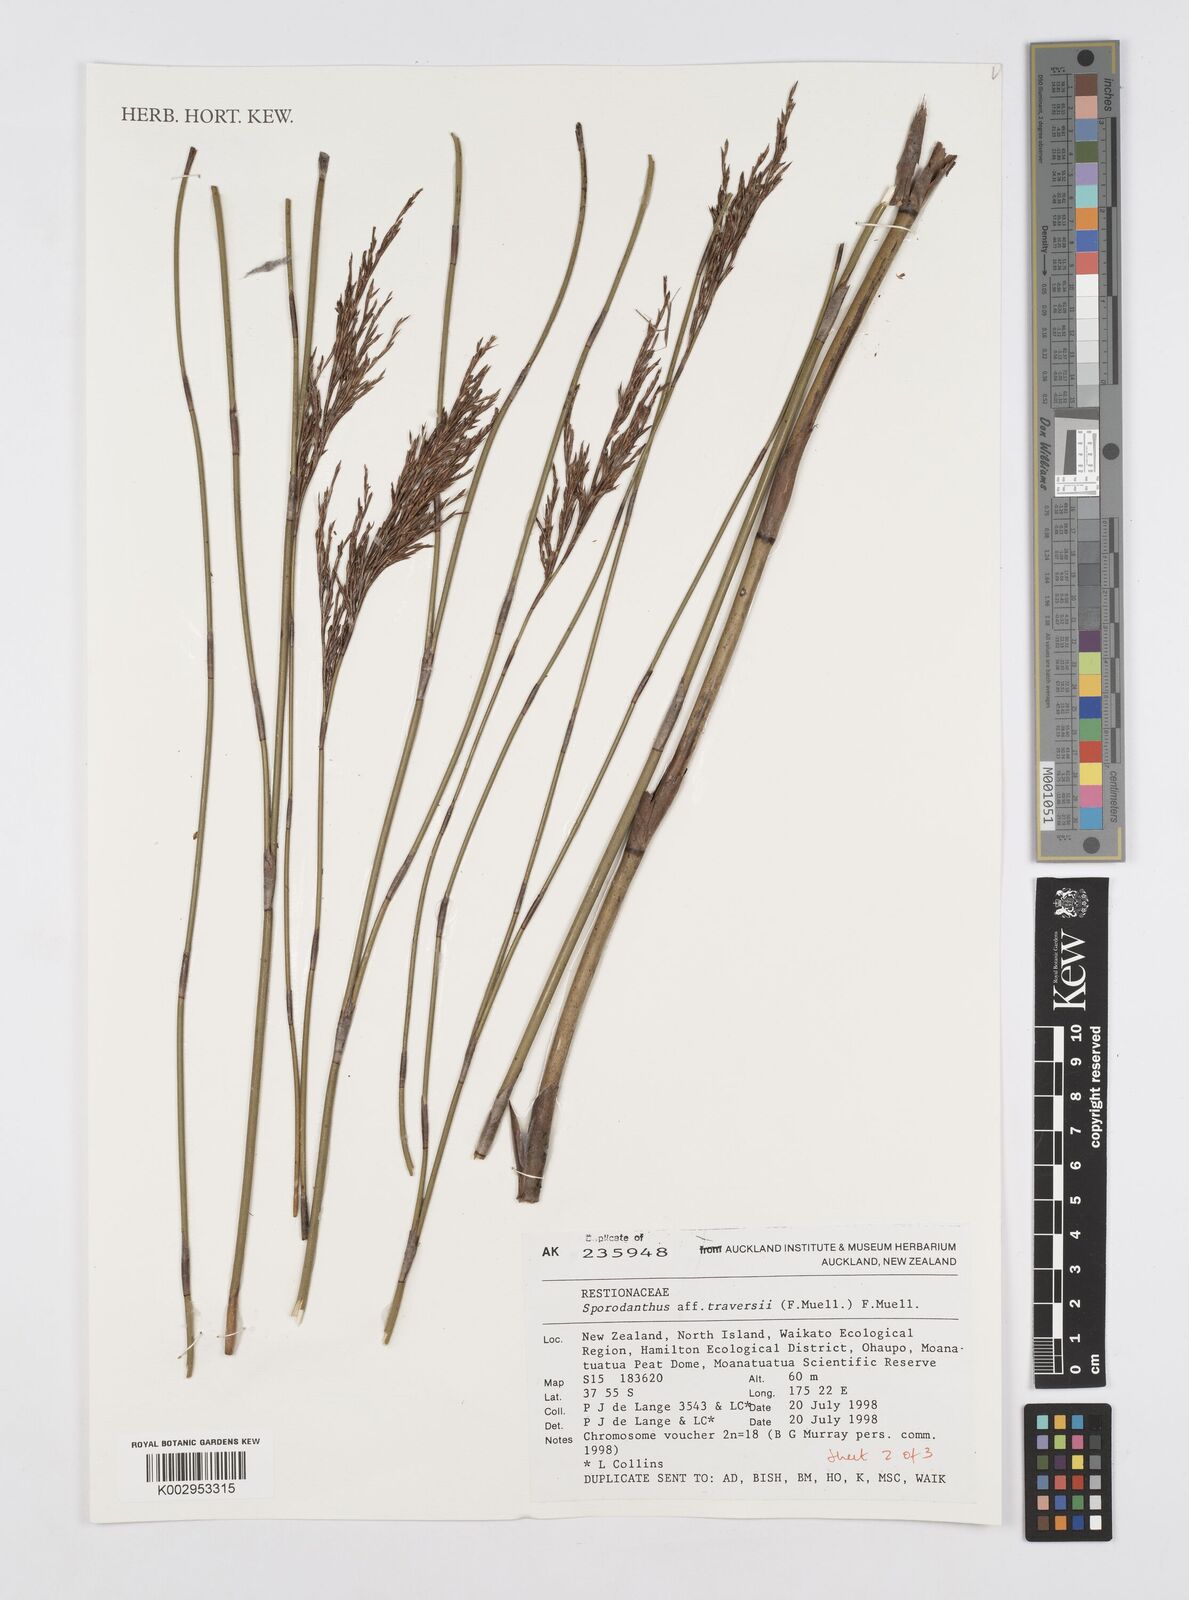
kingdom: Plantae
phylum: Tracheophyta
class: Liliopsida
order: Poales
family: Restionaceae
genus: Sporadanthus
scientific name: Sporadanthus traversii
